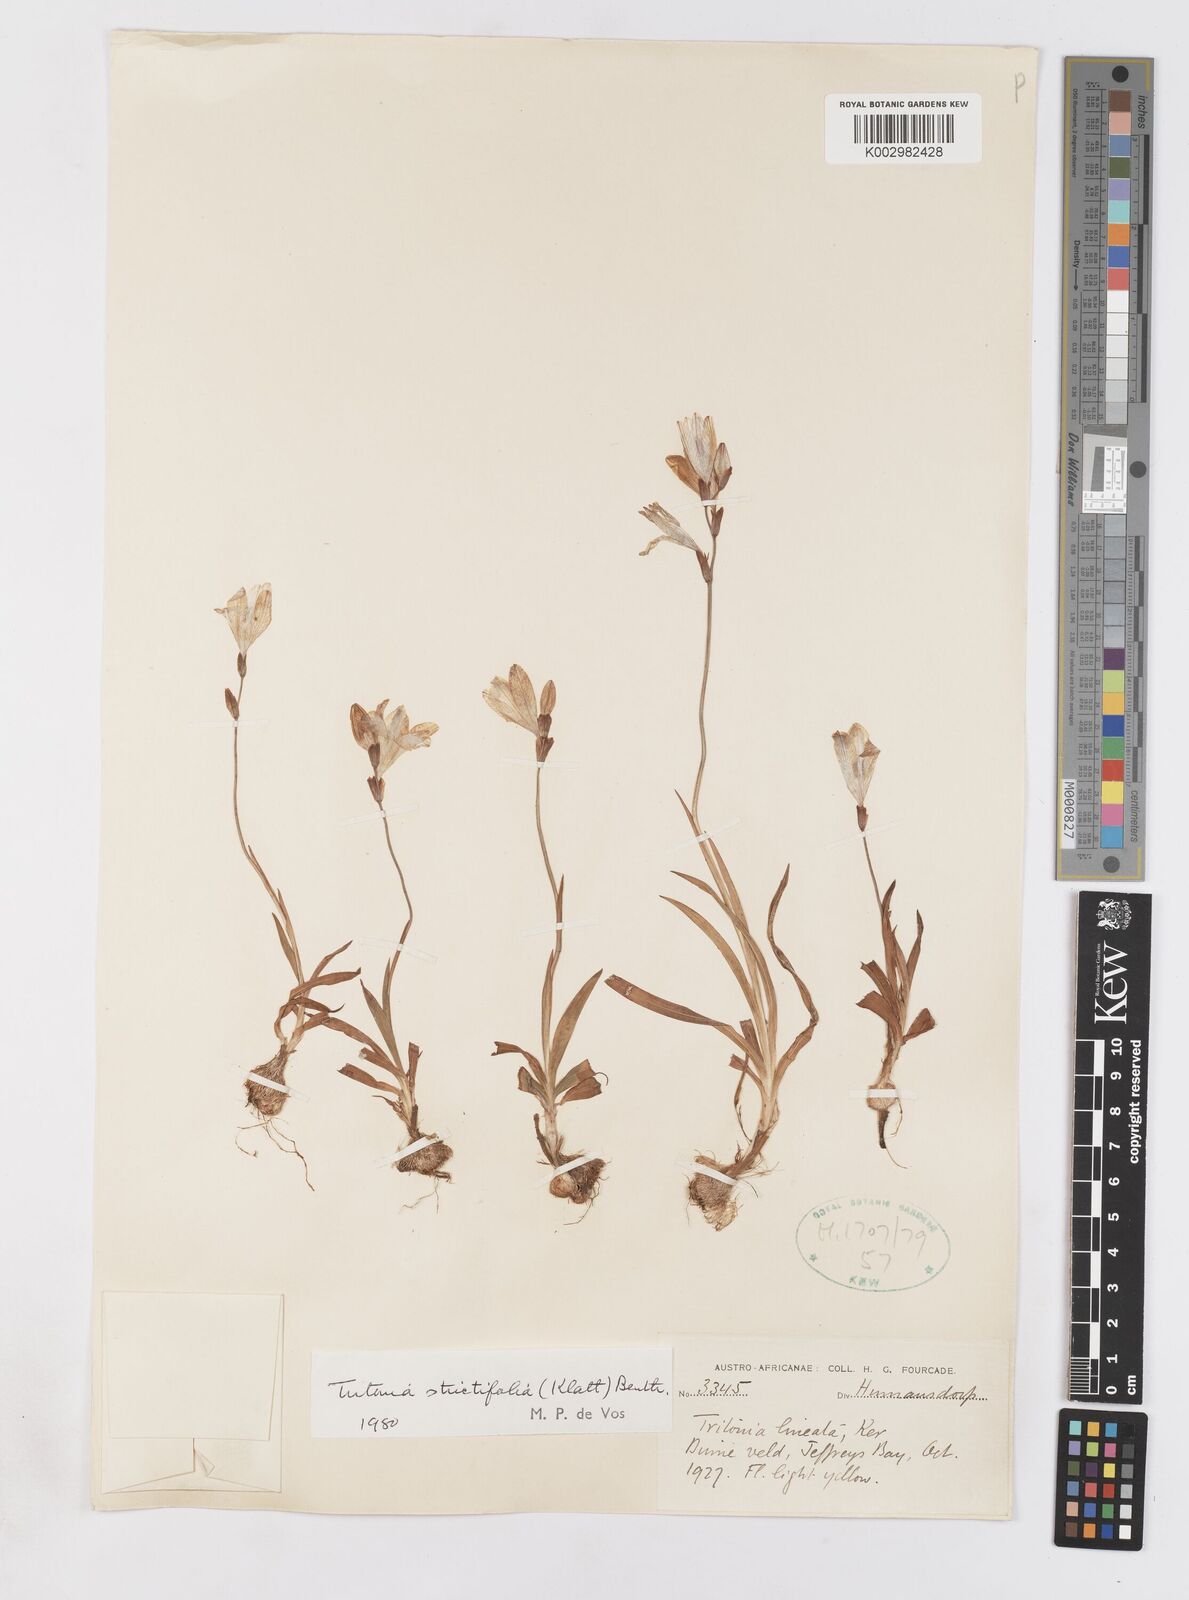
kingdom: Plantae
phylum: Tracheophyta
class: Liliopsida
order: Asparagales
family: Iridaceae
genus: Tritonia
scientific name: Tritonia laxifolia
